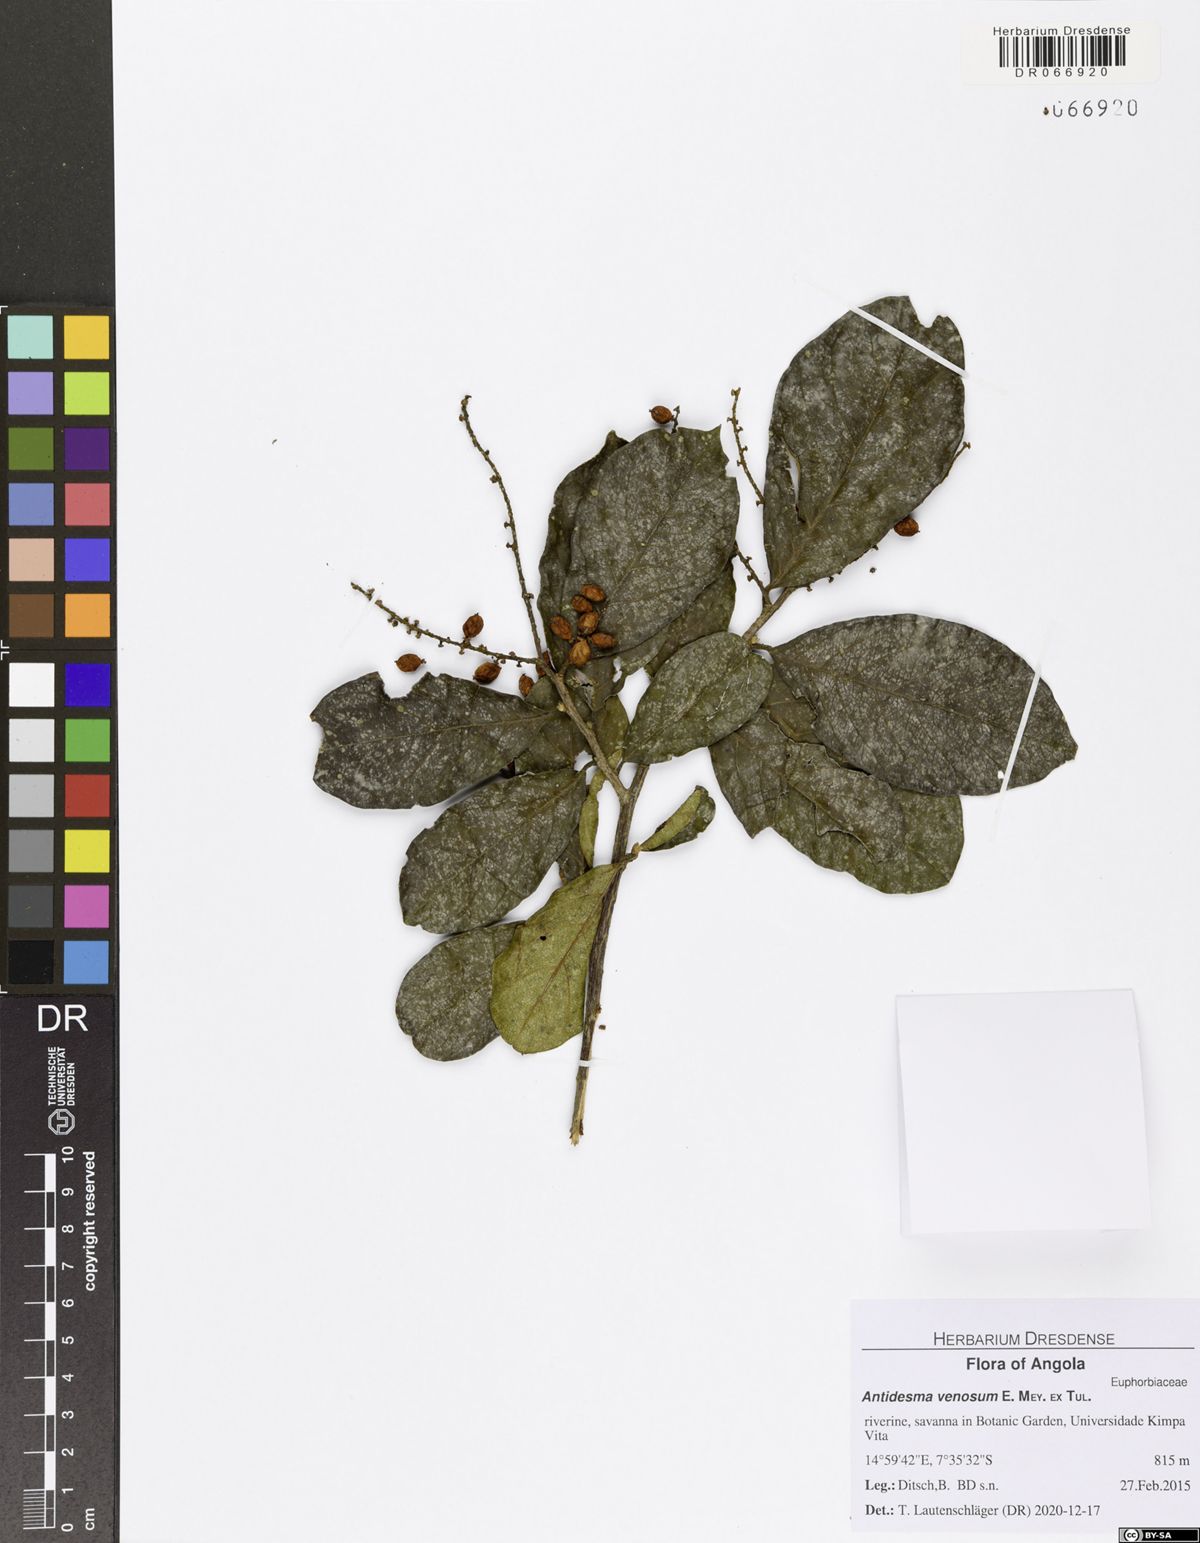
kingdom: Plantae
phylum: Tracheophyta
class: Magnoliopsida
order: Malpighiales
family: Phyllanthaceae
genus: Antidesma
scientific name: Antidesma venosum
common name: Tassel-berry
